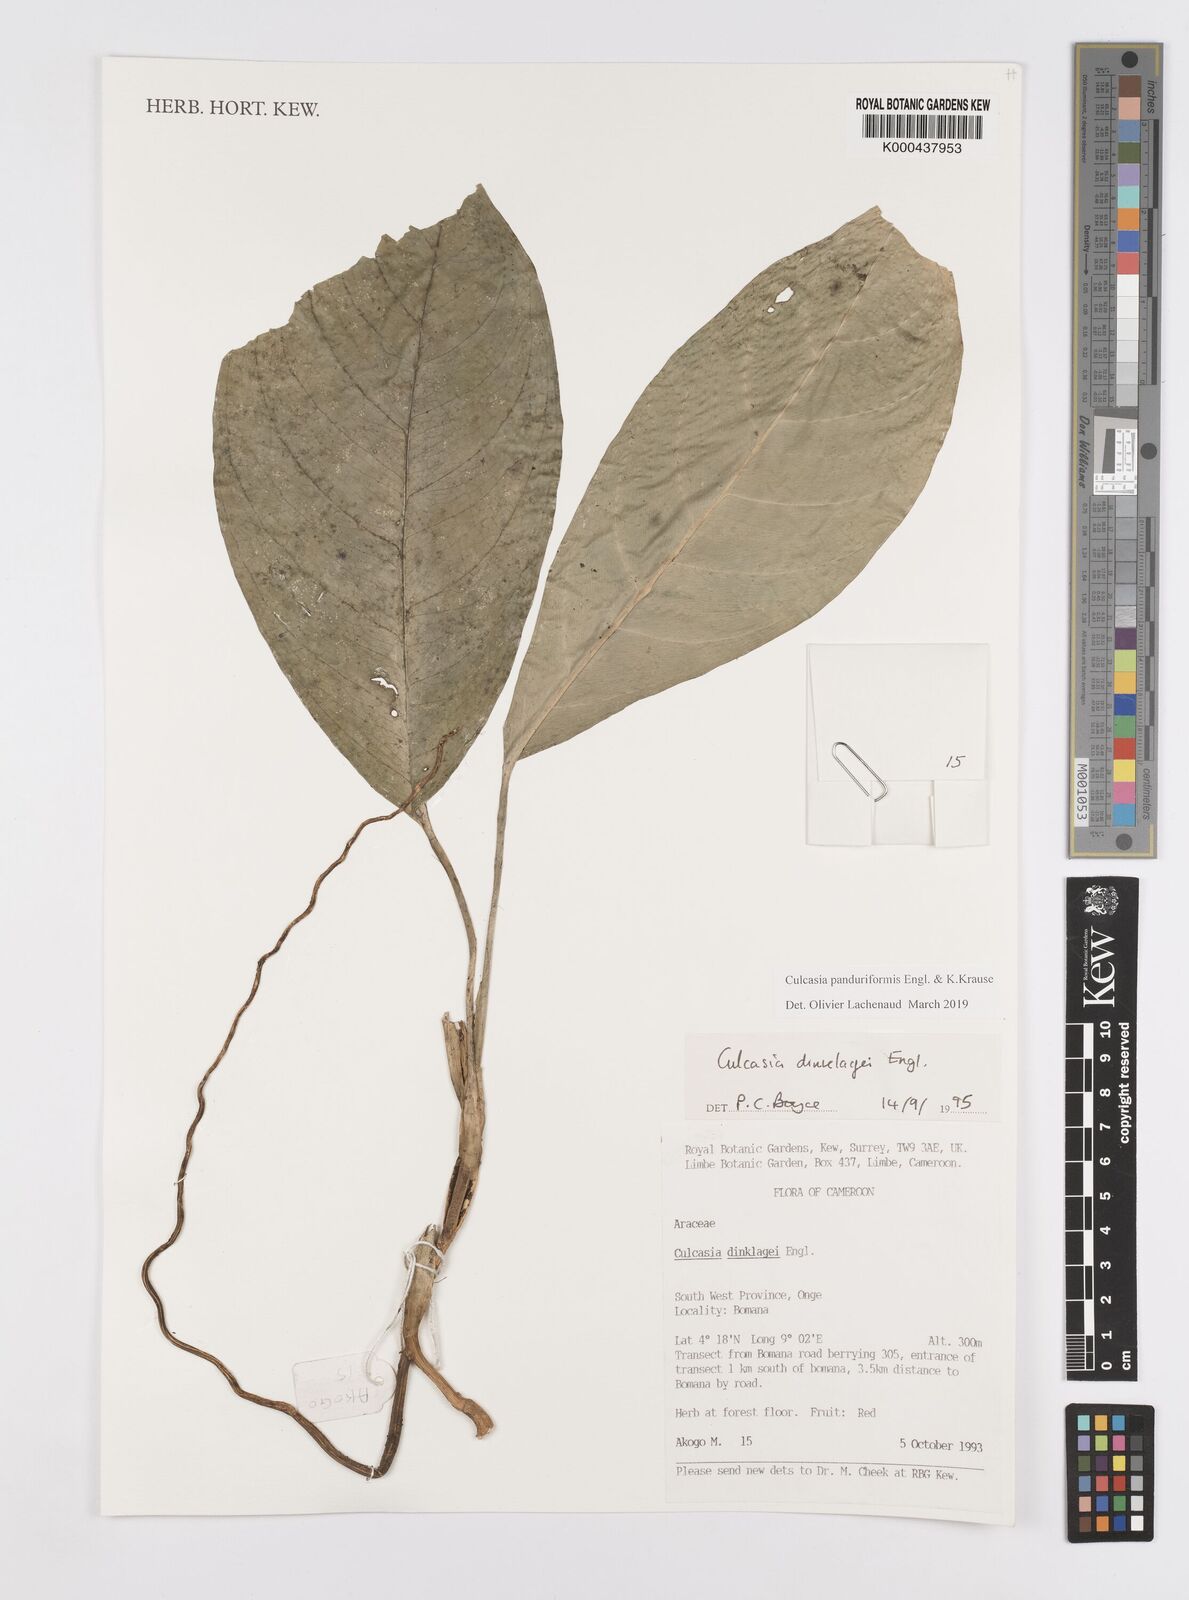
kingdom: Plantae
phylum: Tracheophyta
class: Liliopsida
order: Alismatales
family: Araceae
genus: Culcasia
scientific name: Culcasia panduriformis
